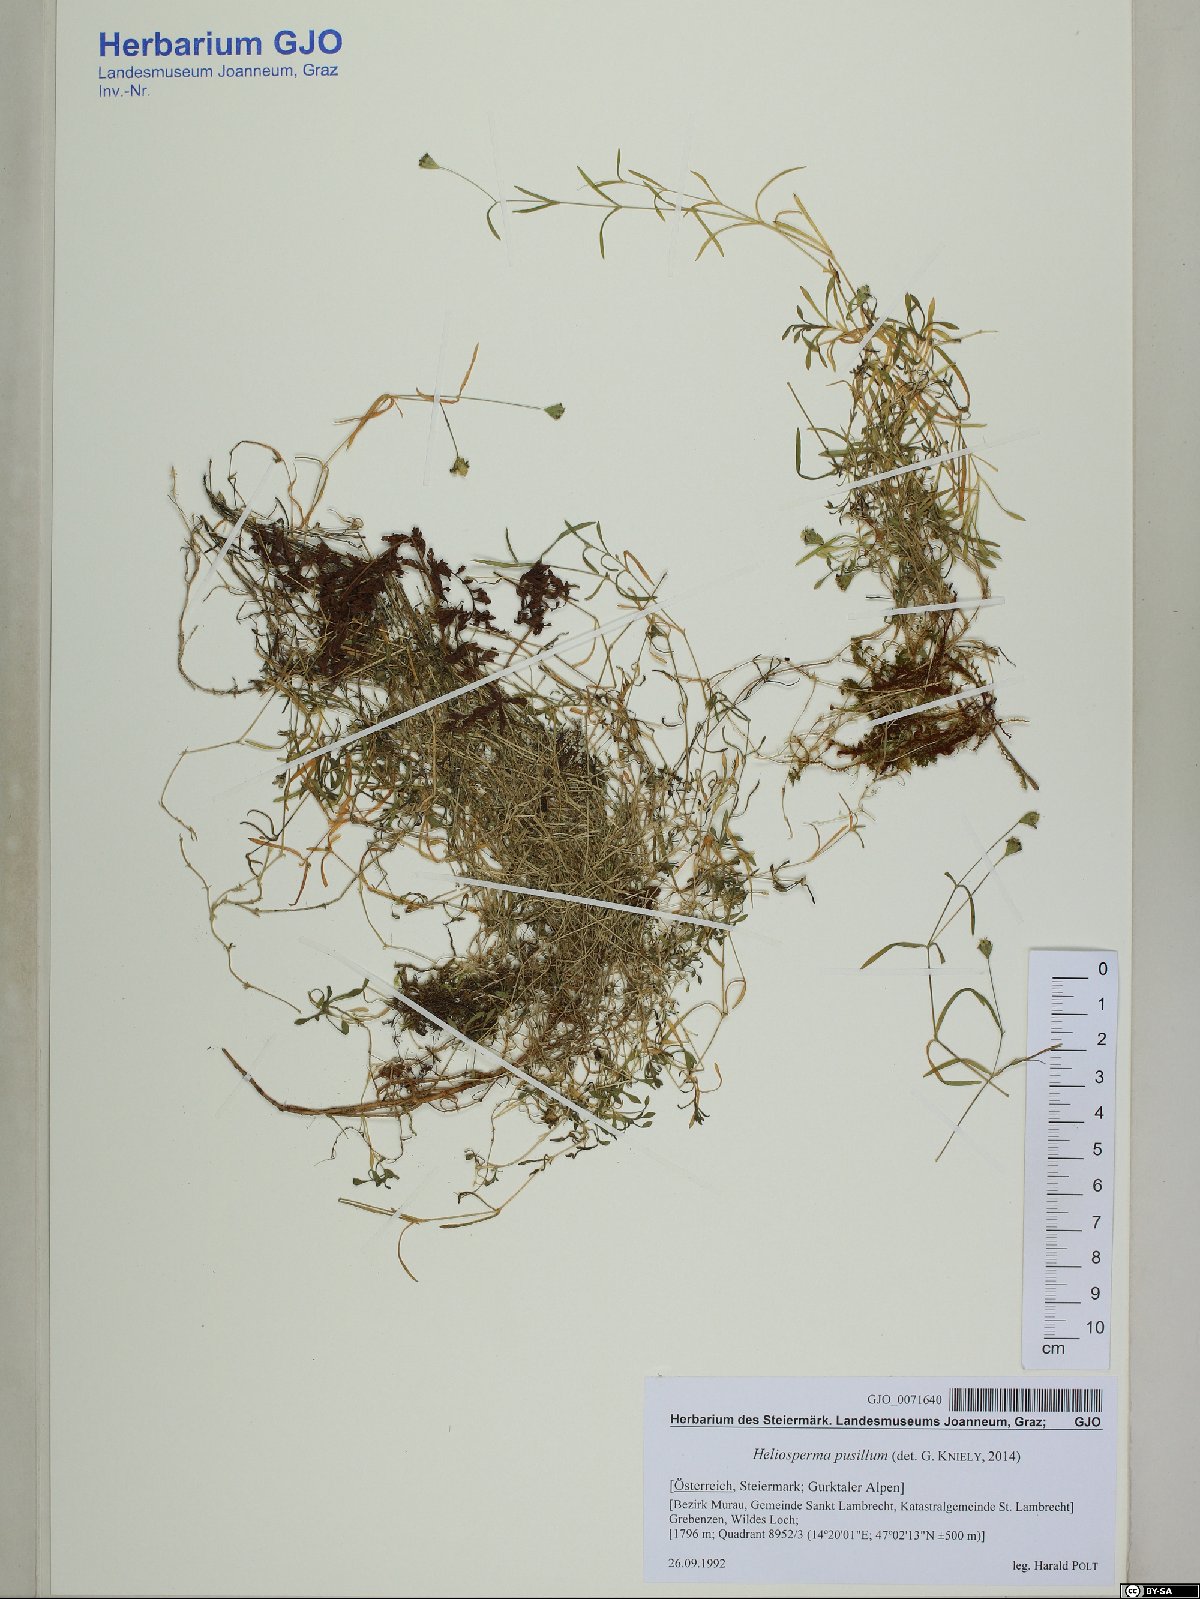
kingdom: Plantae
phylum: Tracheophyta
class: Magnoliopsida
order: Caryophyllales
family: Caryophyllaceae
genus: Heliosperma
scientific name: Heliosperma pusillum
